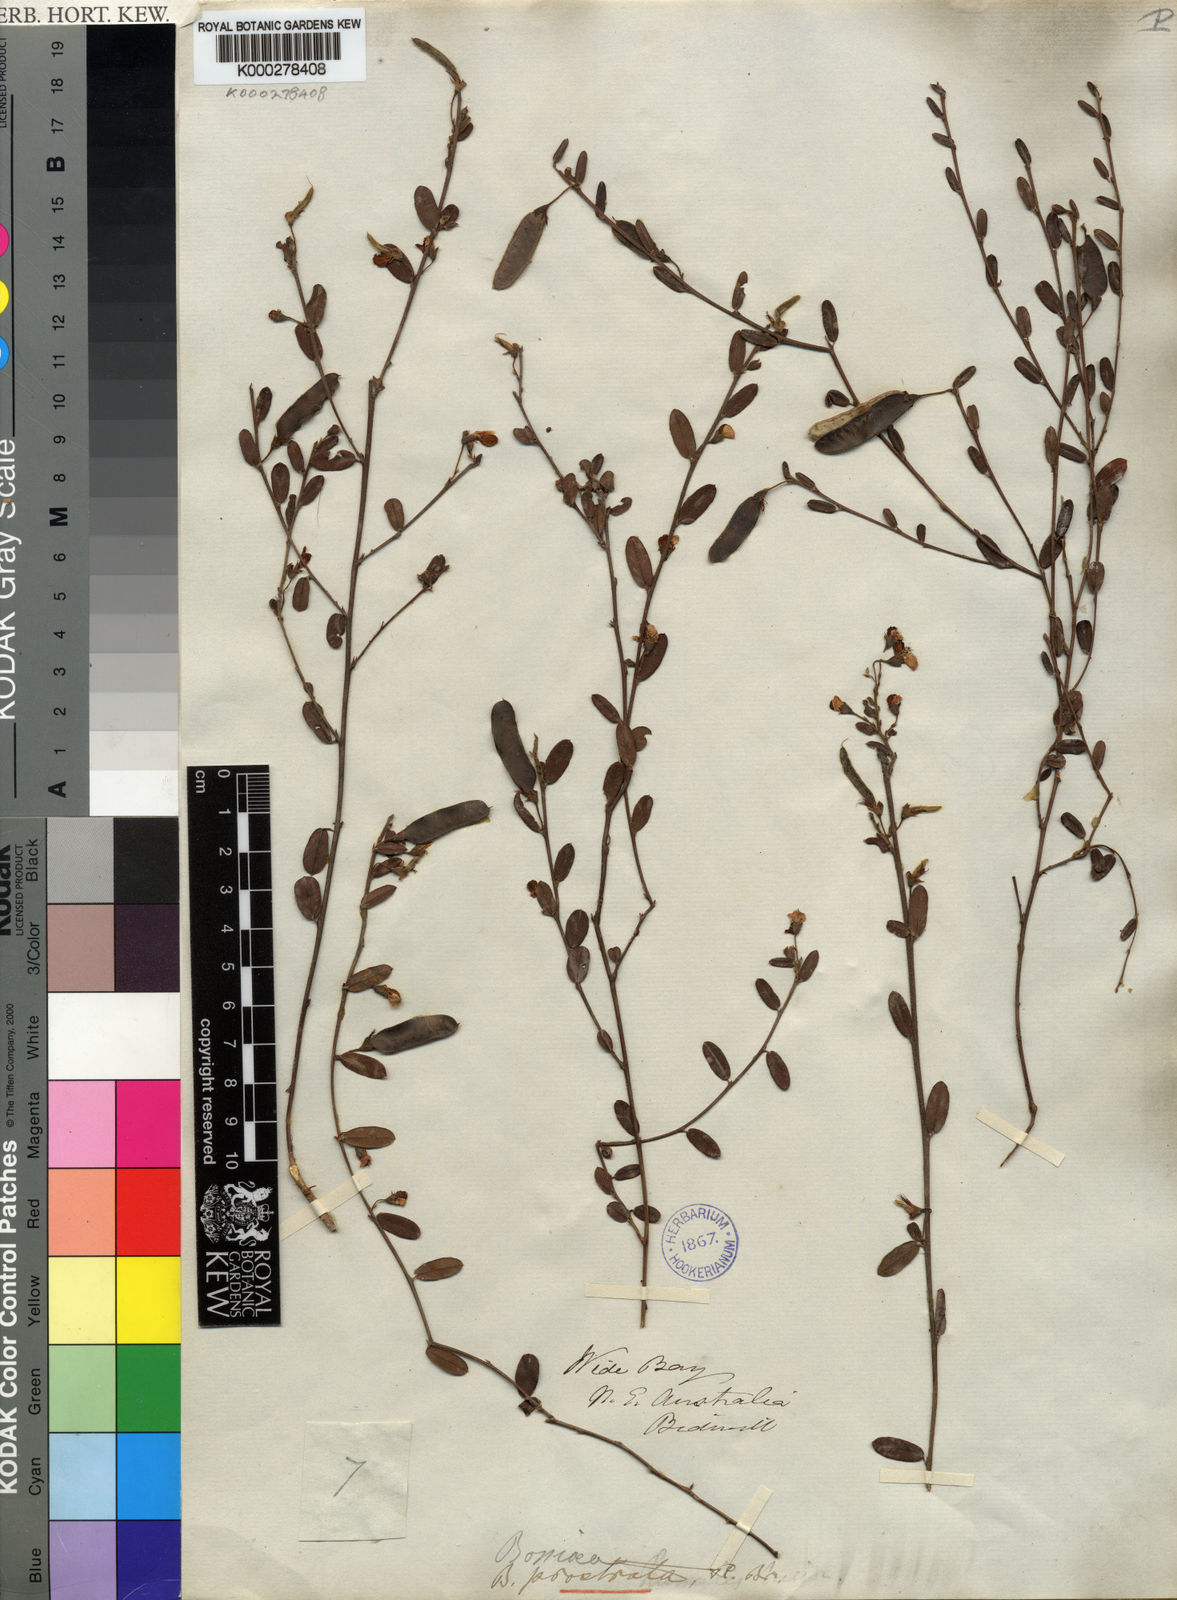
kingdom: Plantae
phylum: Tracheophyta
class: Magnoliopsida
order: Fabales
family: Fabaceae
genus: Bossiaea
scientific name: Bossiaea prostrata
